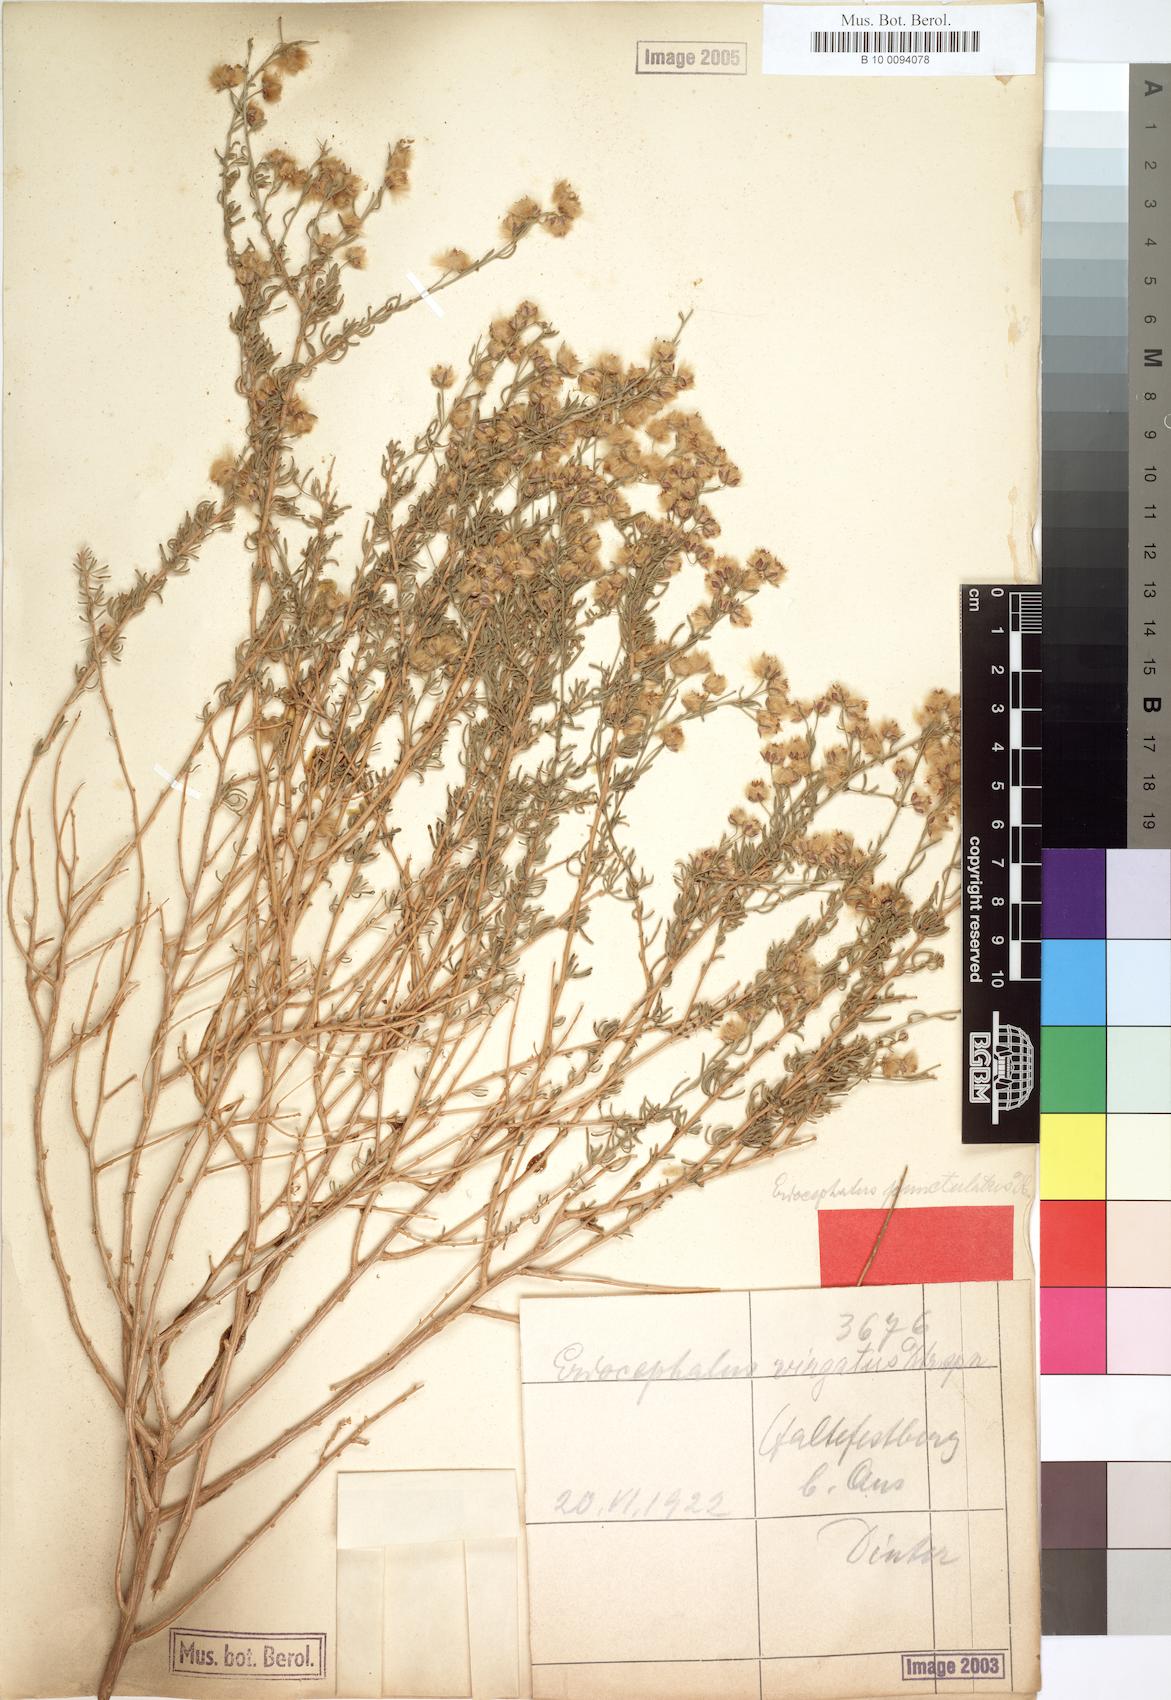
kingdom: Plantae
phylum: Tracheophyta
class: Magnoliopsida
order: Asterales
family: Asteraceae
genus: Eriocephalus
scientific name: Eriocephalus scariosus
